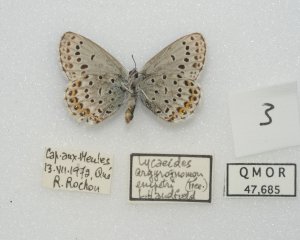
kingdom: Animalia
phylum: Arthropoda
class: Insecta
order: Lepidoptera
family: Lycaenidae
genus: Lycaeides
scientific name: Lycaeides idas
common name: Northern Blue
